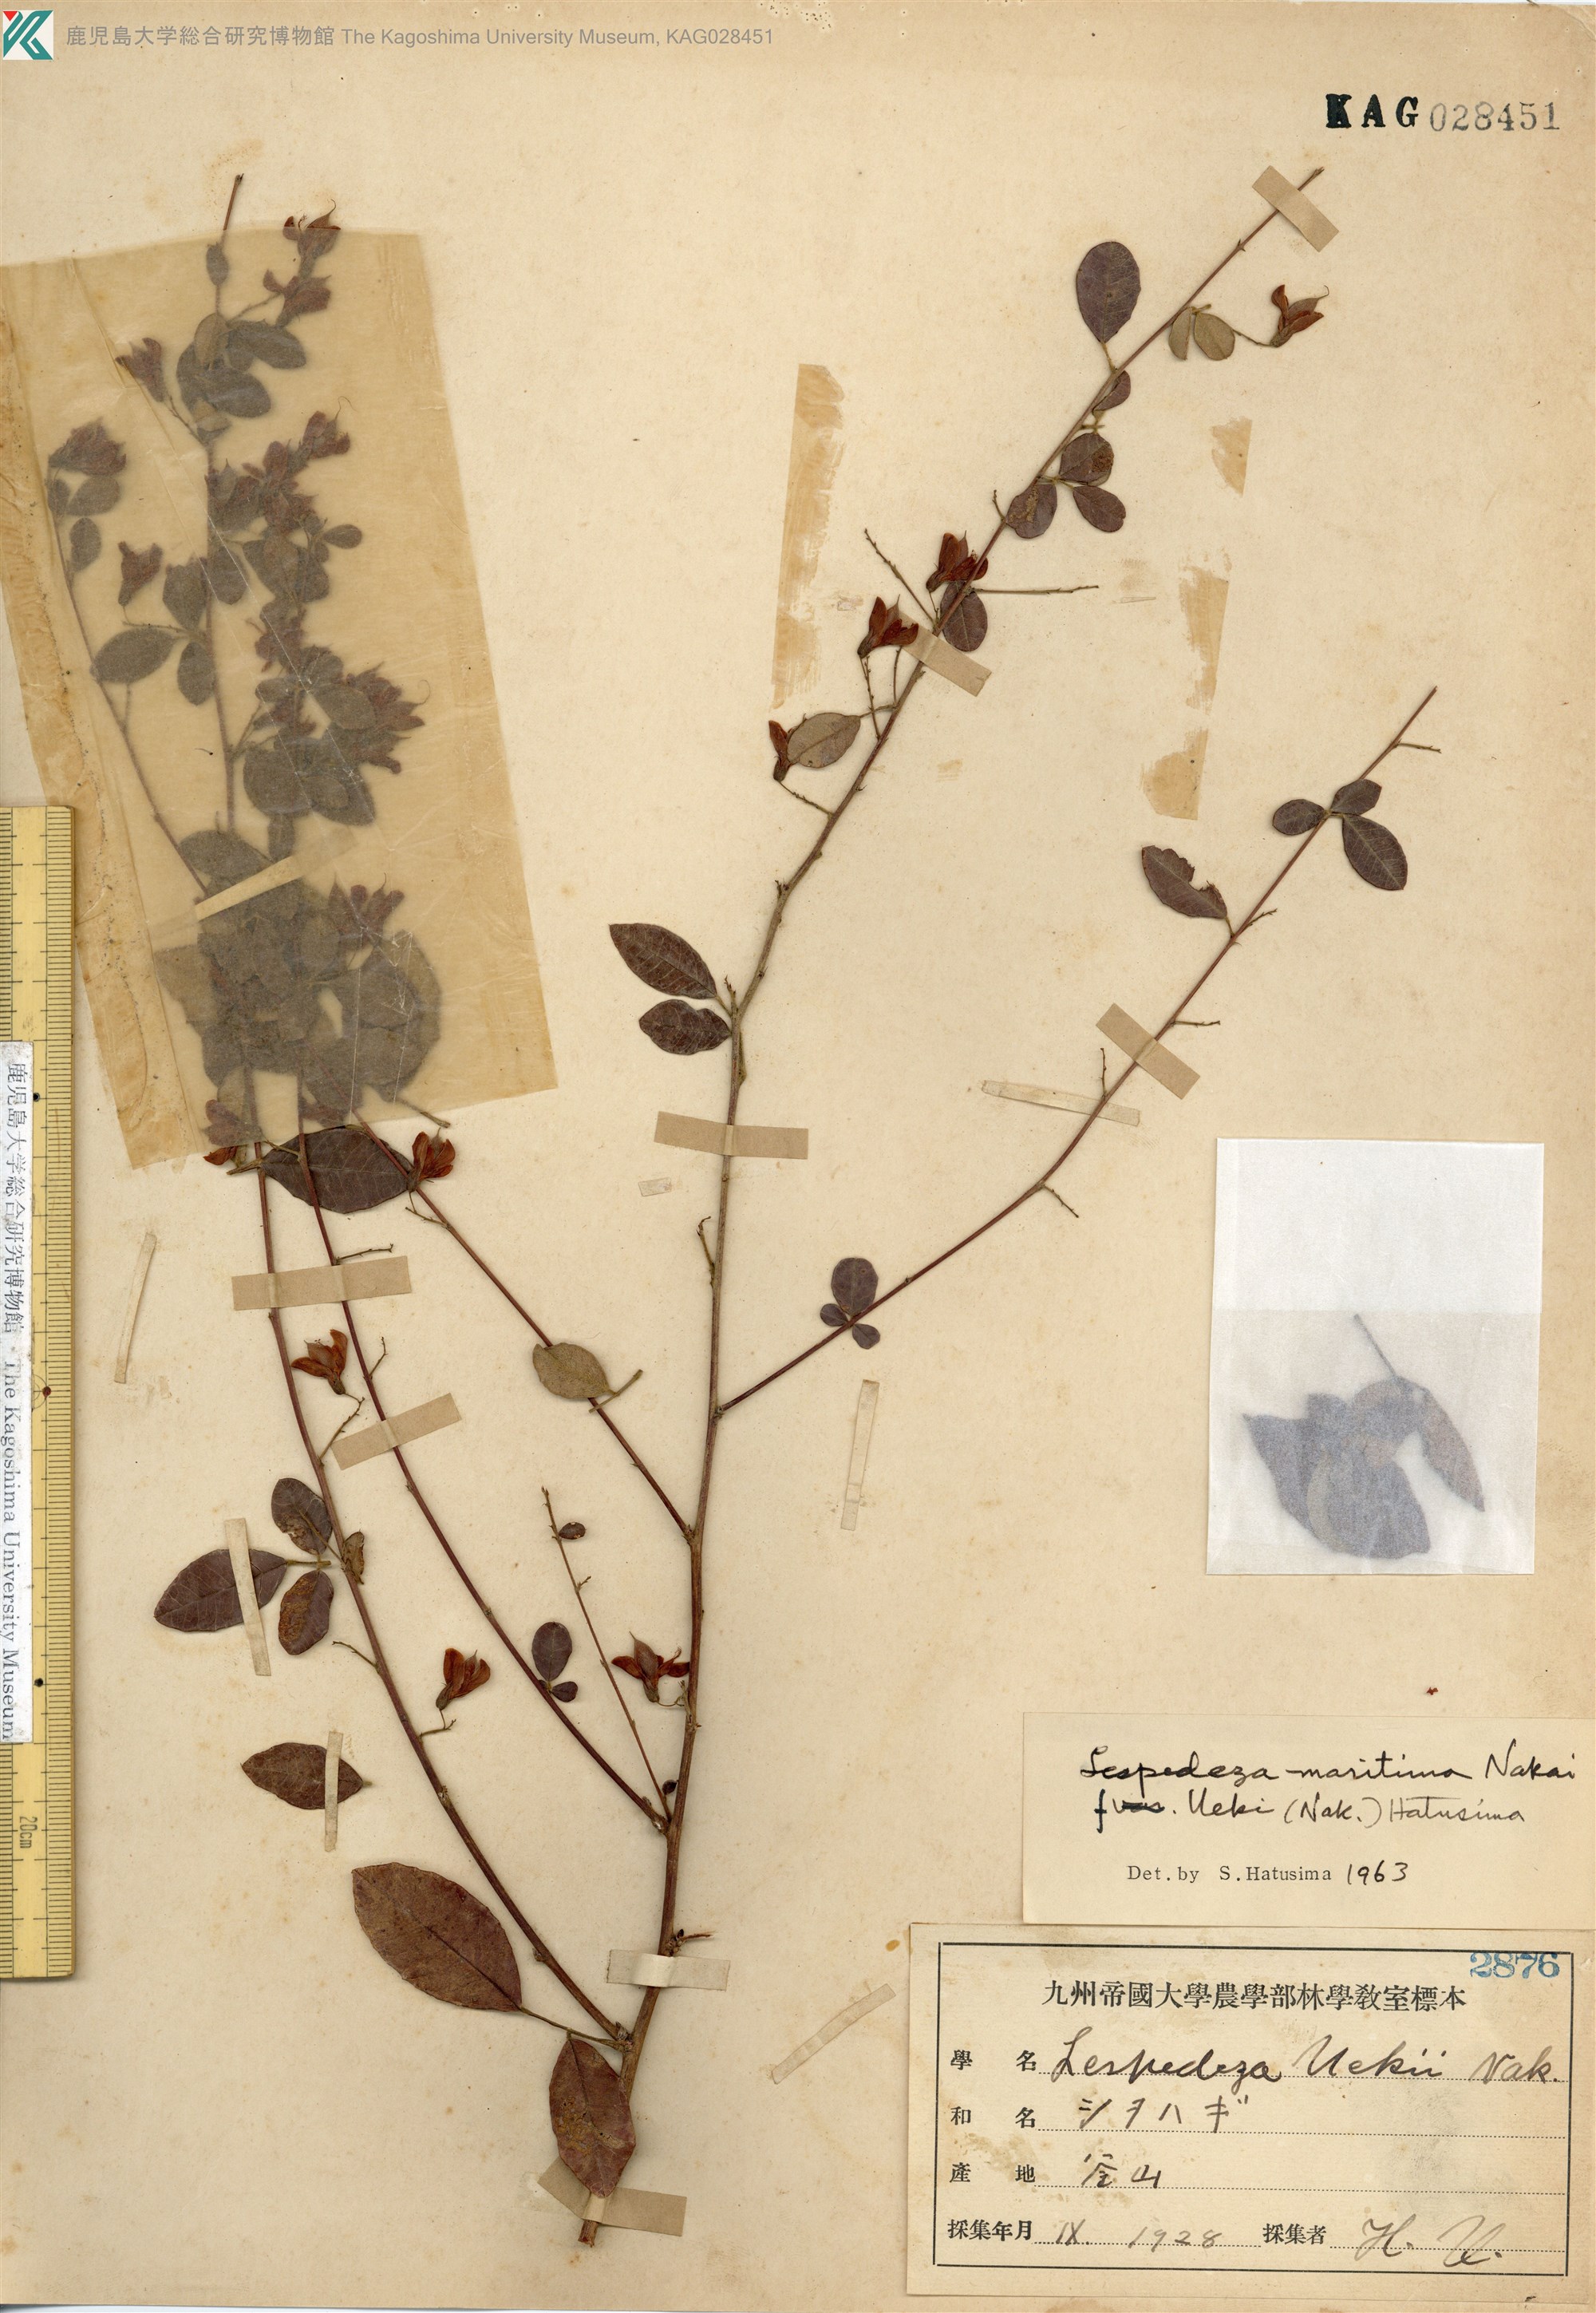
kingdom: Plantae
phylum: Tracheophyta
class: Magnoliopsida
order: Fabales
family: Fabaceae
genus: Lespedeza
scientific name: Lespedeza maritima
